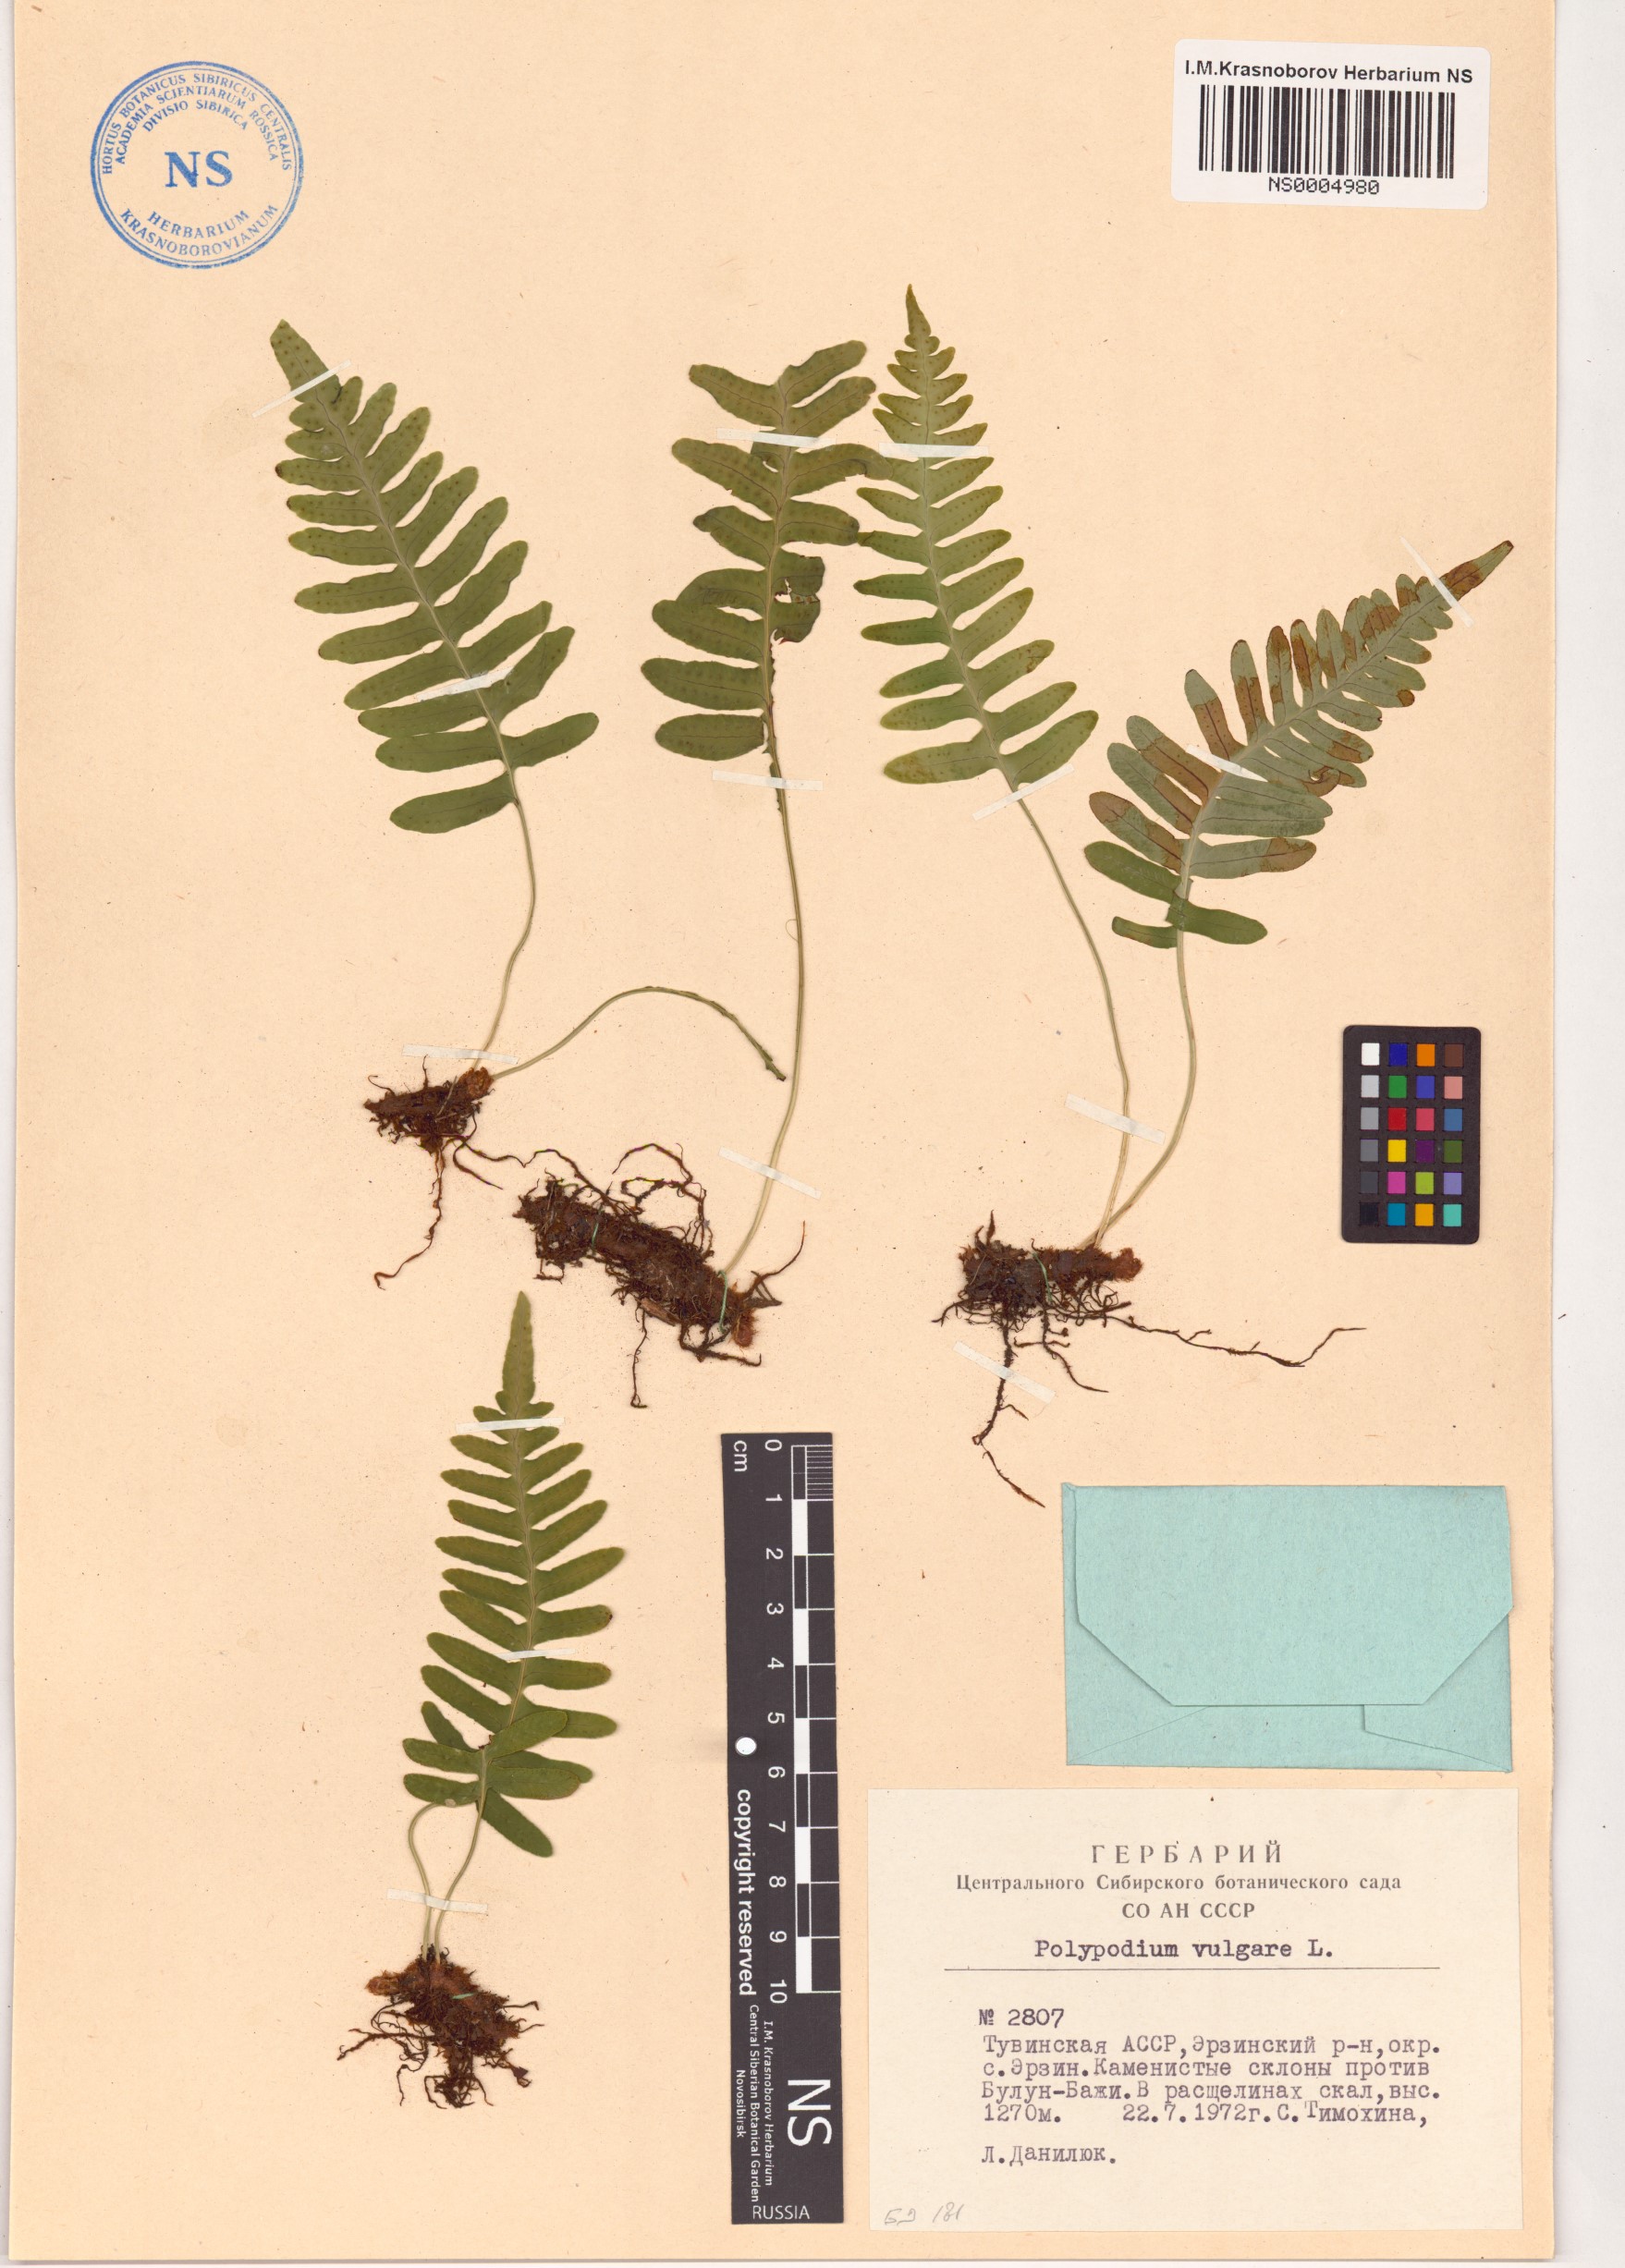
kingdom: Plantae
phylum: Tracheophyta
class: Polypodiopsida
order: Polypodiales
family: Polypodiaceae
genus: Polypodium
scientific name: Polypodium vulgare
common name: Common polypody
